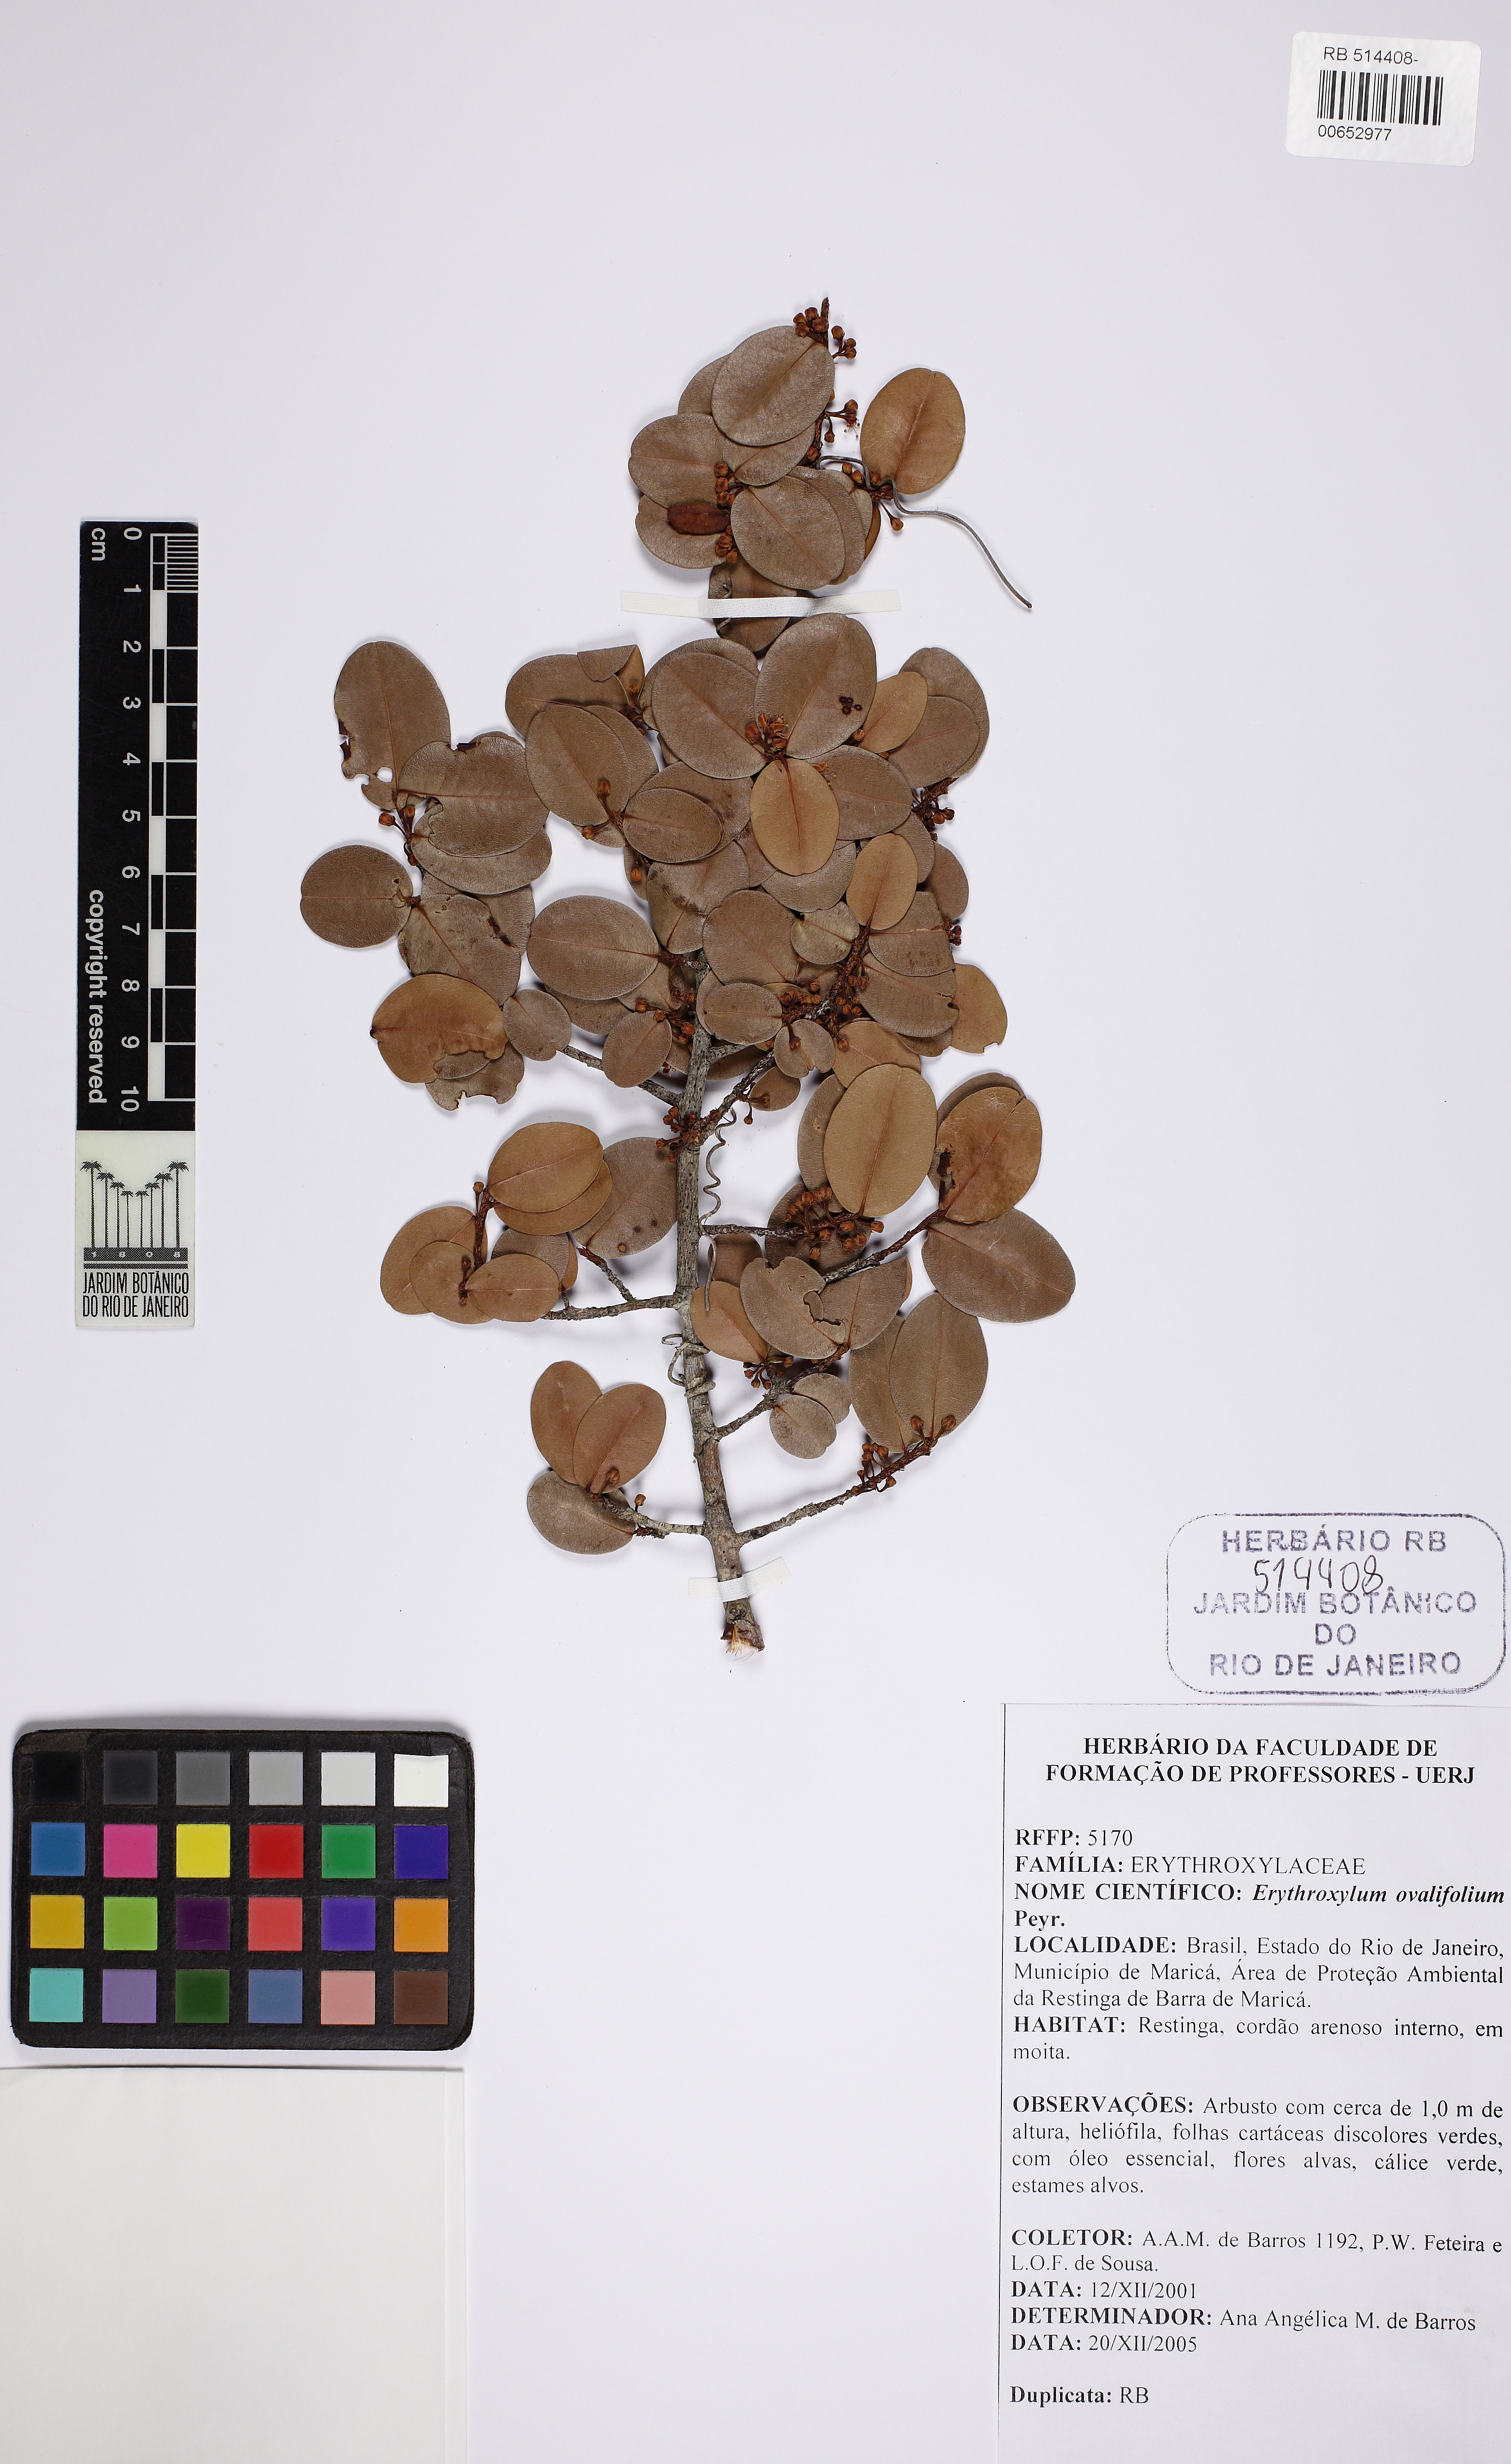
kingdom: Plantae
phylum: Tracheophyta
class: Magnoliopsida
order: Malpighiales
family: Erythroxylaceae
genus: Erythroxylum
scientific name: Erythroxylum ovalifolium
